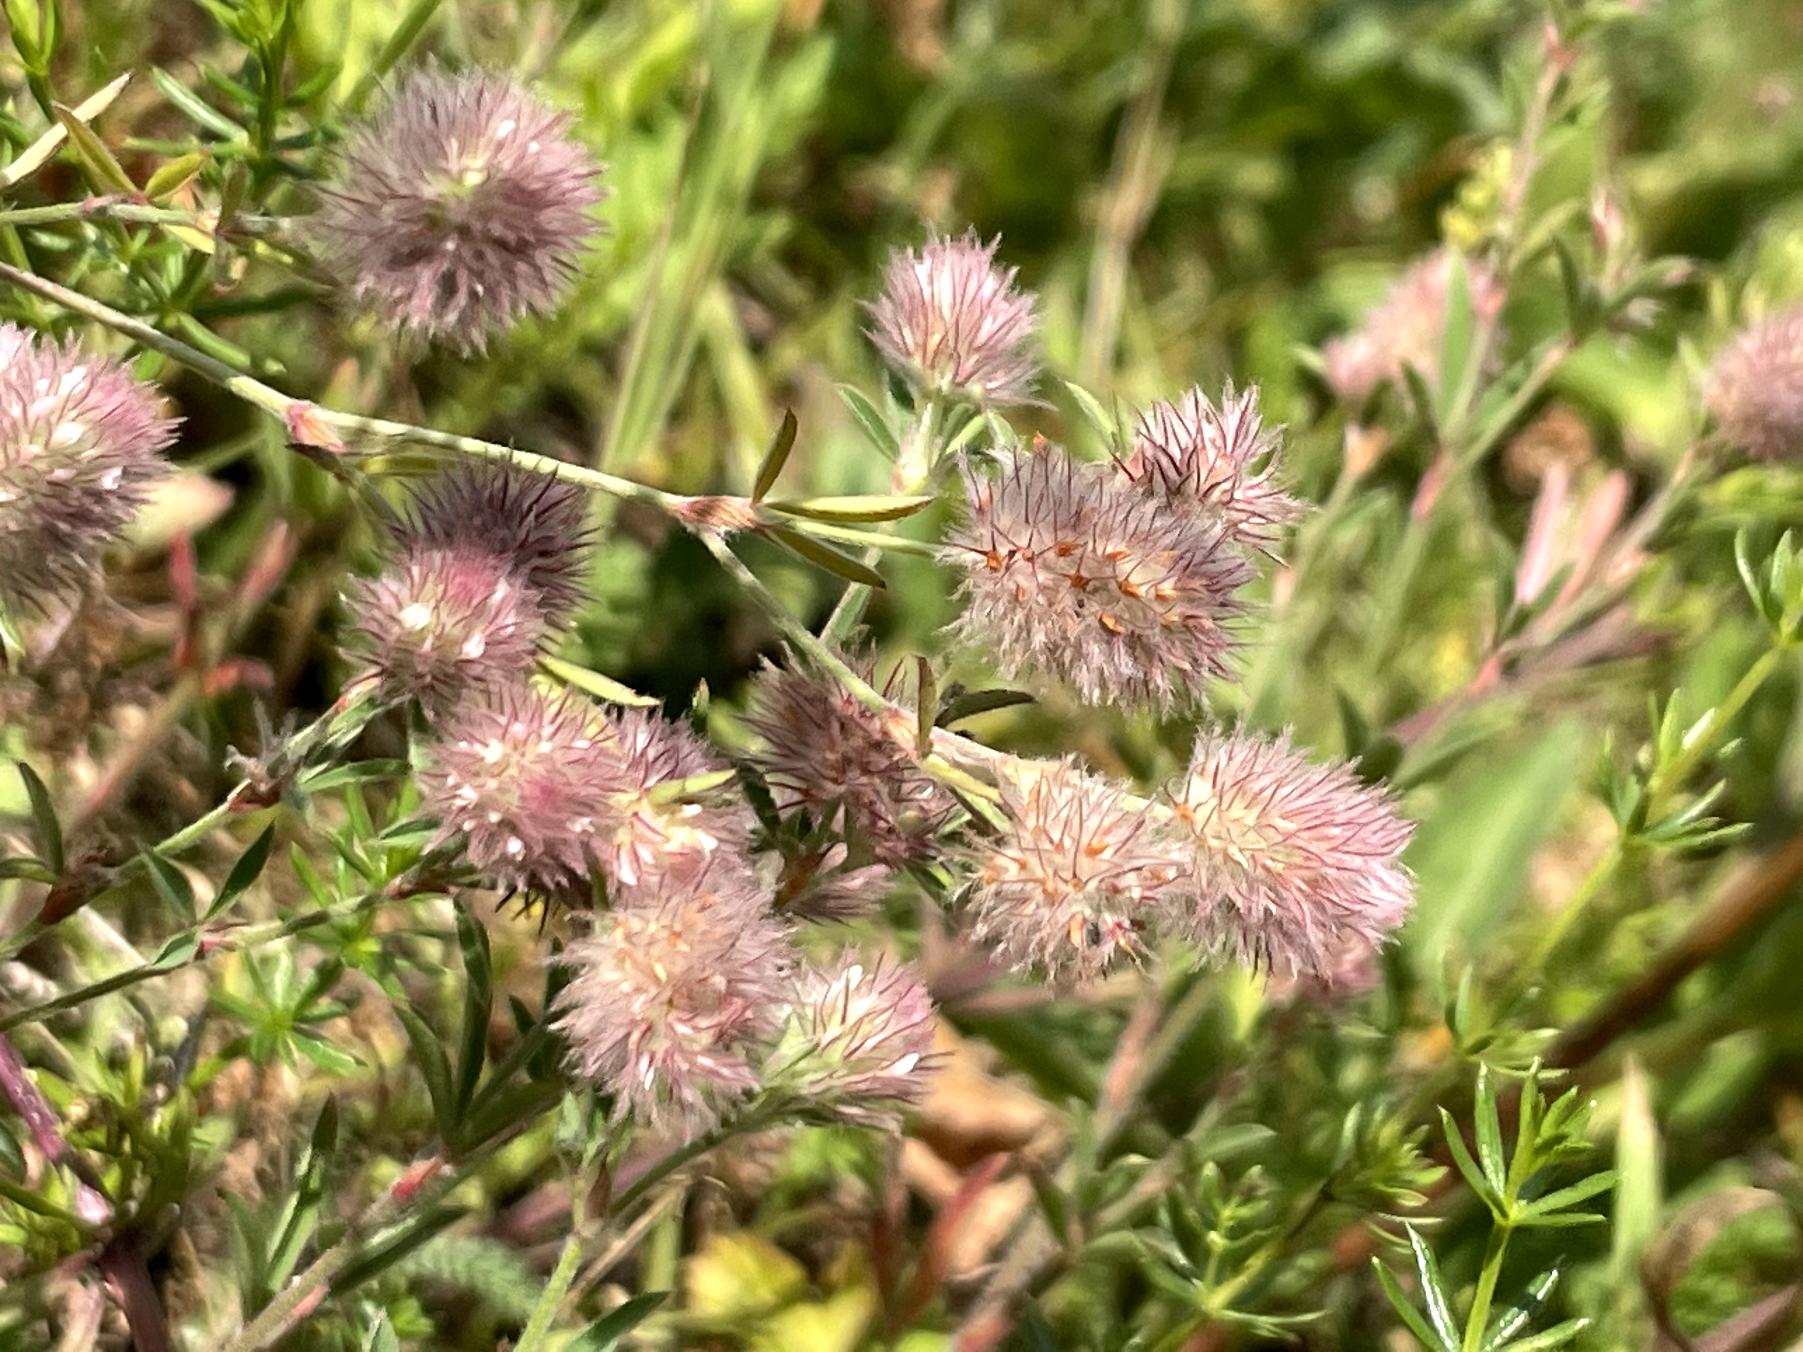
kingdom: Plantae
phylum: Tracheophyta
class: Magnoliopsida
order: Fabales
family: Fabaceae
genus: Trifolium
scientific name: Trifolium arvense
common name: Hare-kløver
